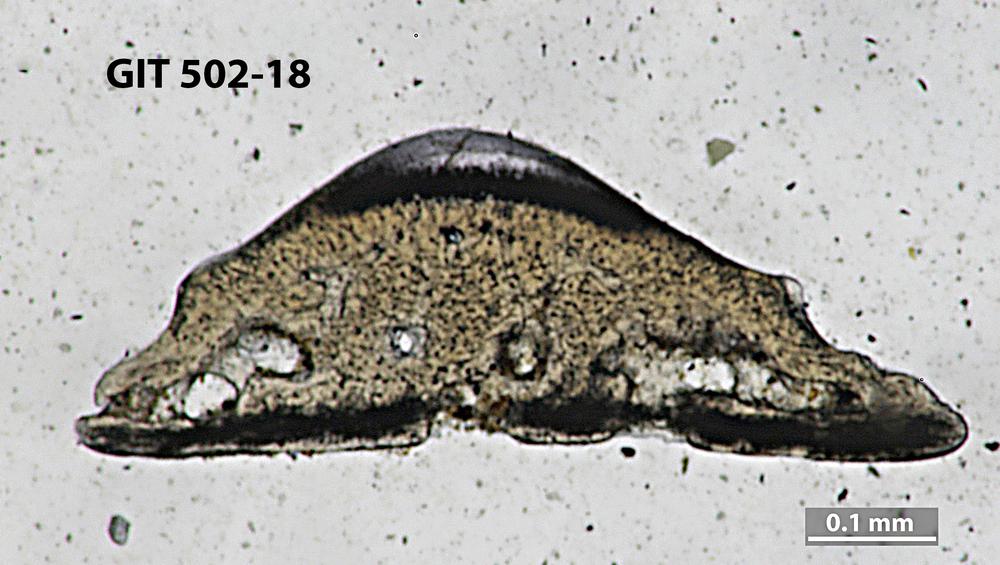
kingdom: Animalia
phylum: Chordata
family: Dartmuthiidae
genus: Dartmuthia
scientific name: Dartmuthia
